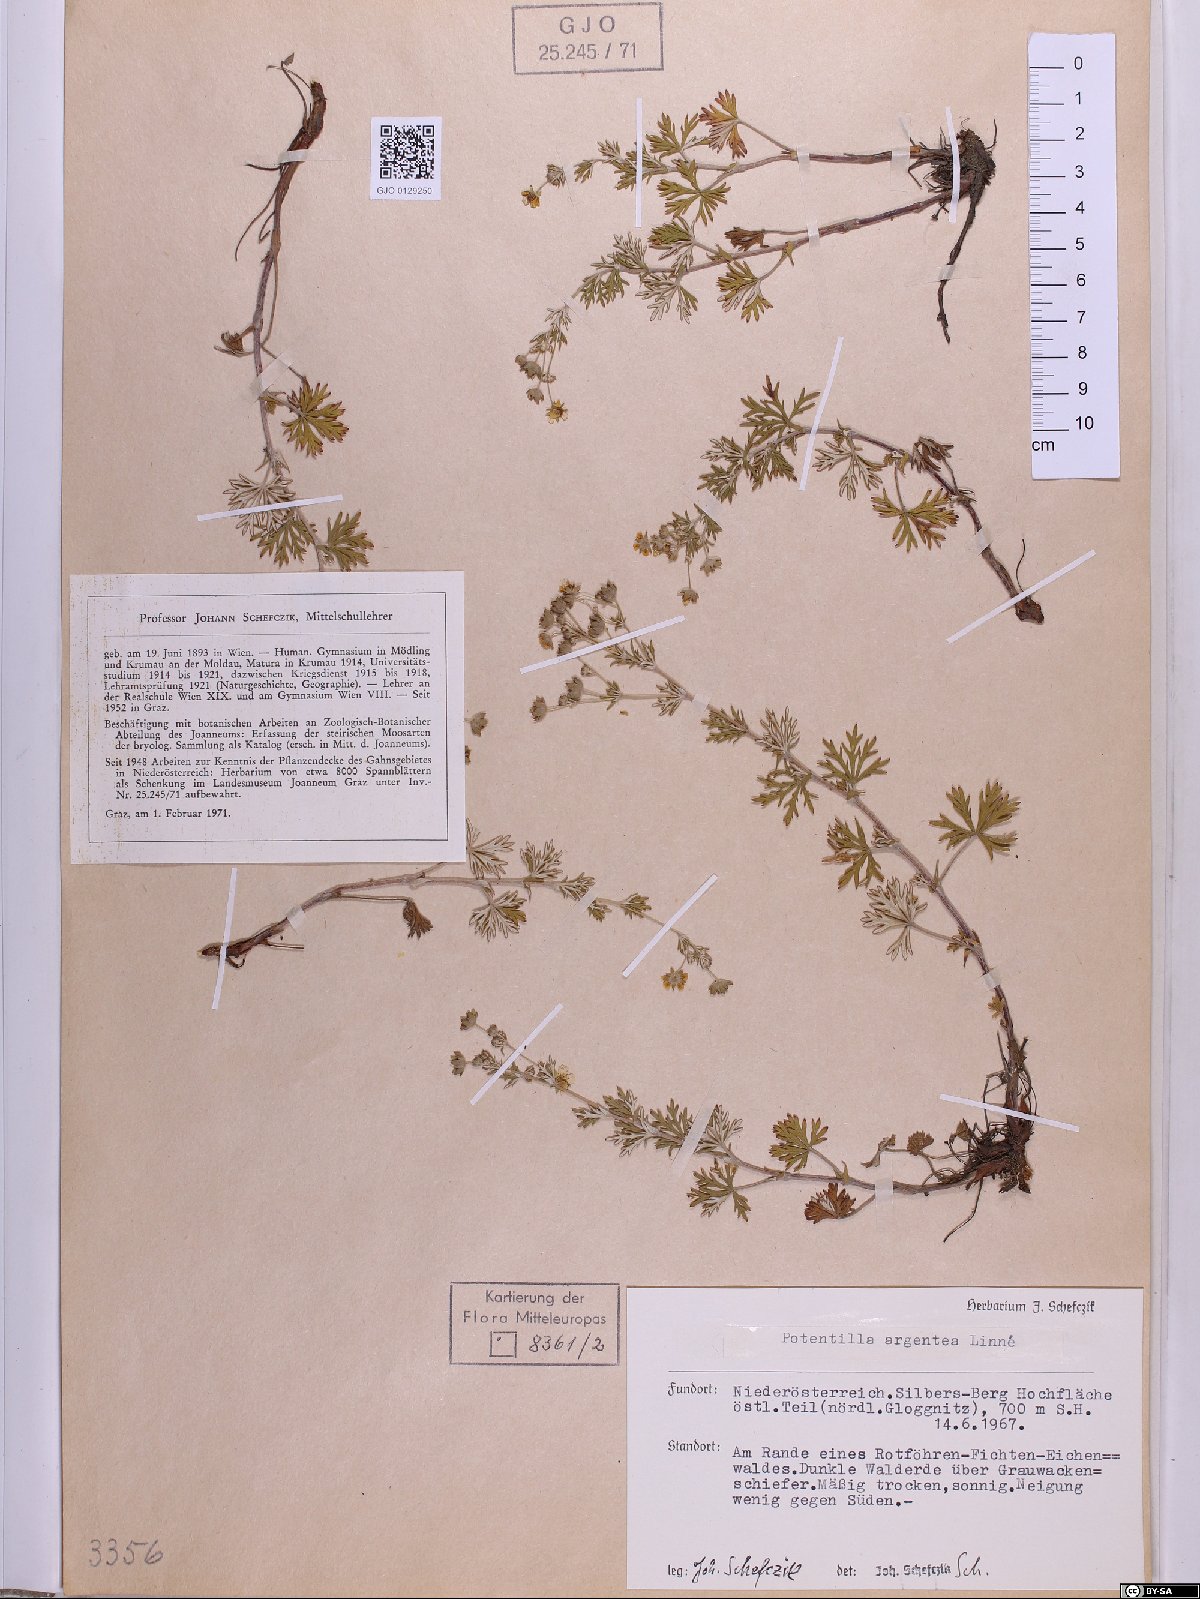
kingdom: Plantae
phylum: Tracheophyta
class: Magnoliopsida
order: Rosales
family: Rosaceae
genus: Potentilla
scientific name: Potentilla argentea
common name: Hoary cinquefoil
